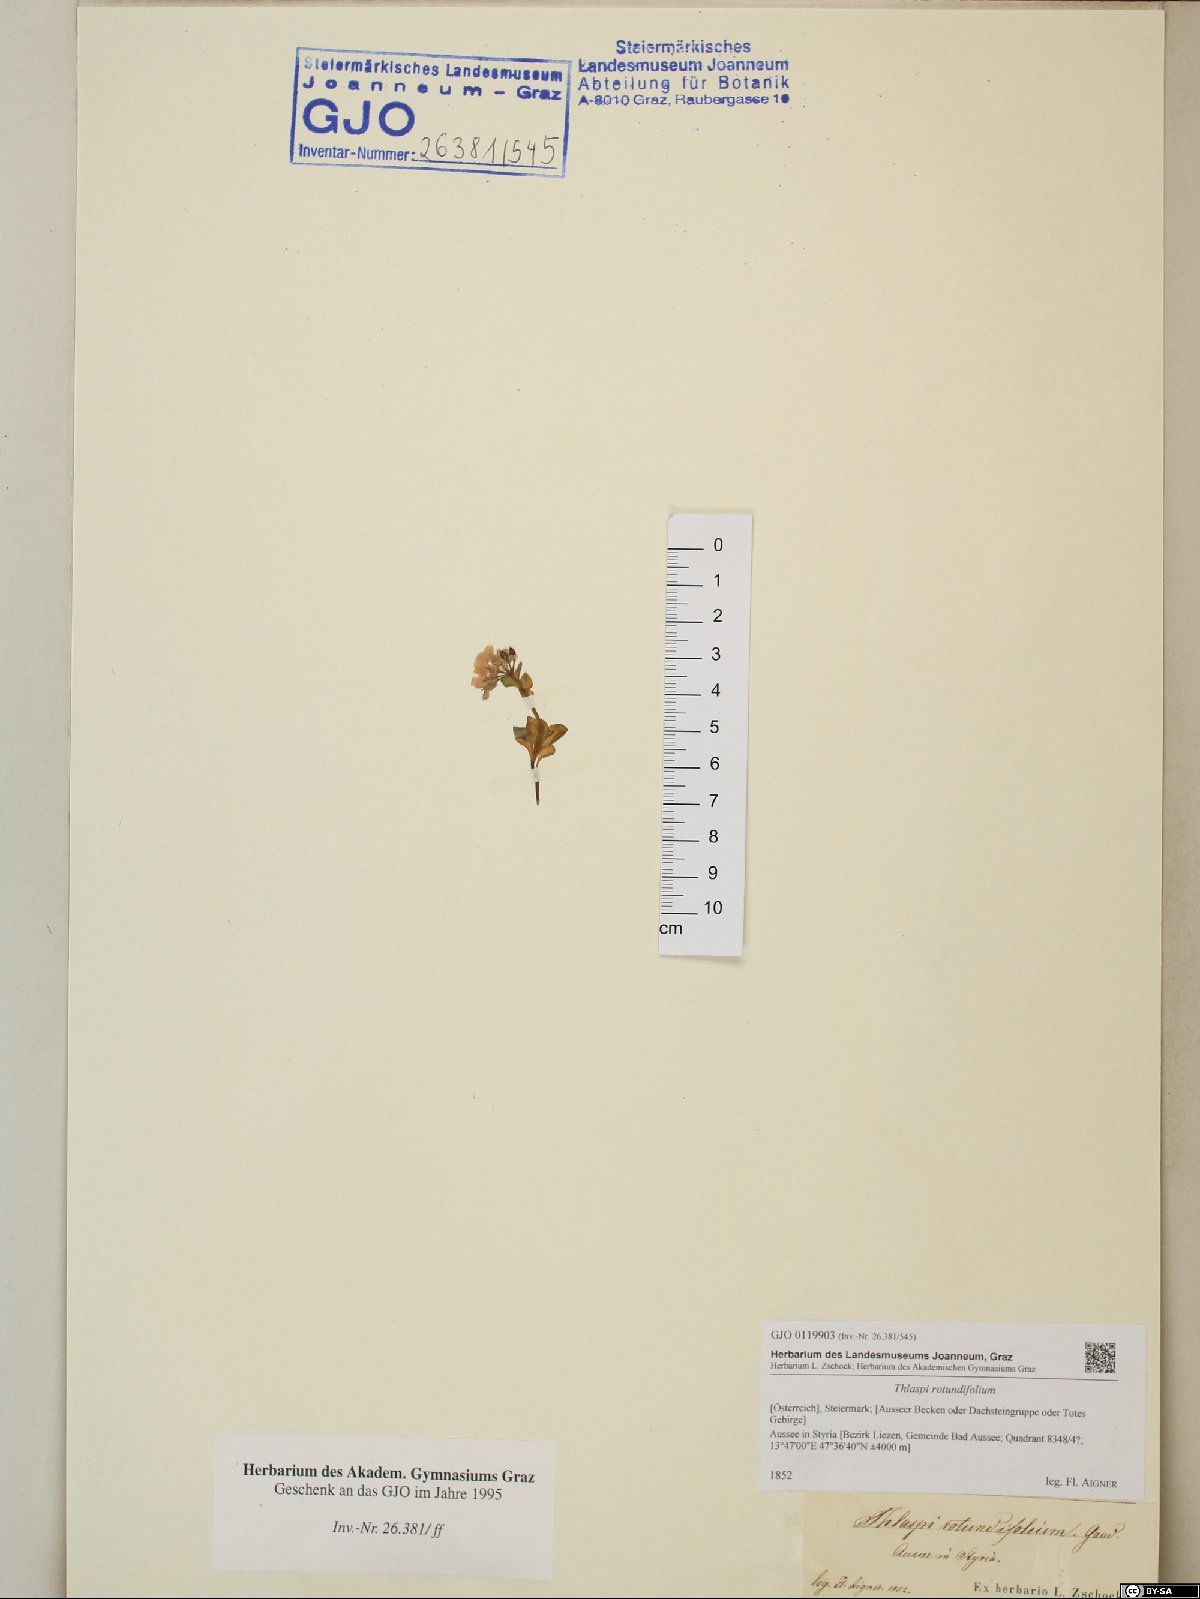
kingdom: Plantae
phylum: Tracheophyta
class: Magnoliopsida
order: Brassicales
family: Brassicaceae
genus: Noccaea
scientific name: Noccaea rotundifolia
